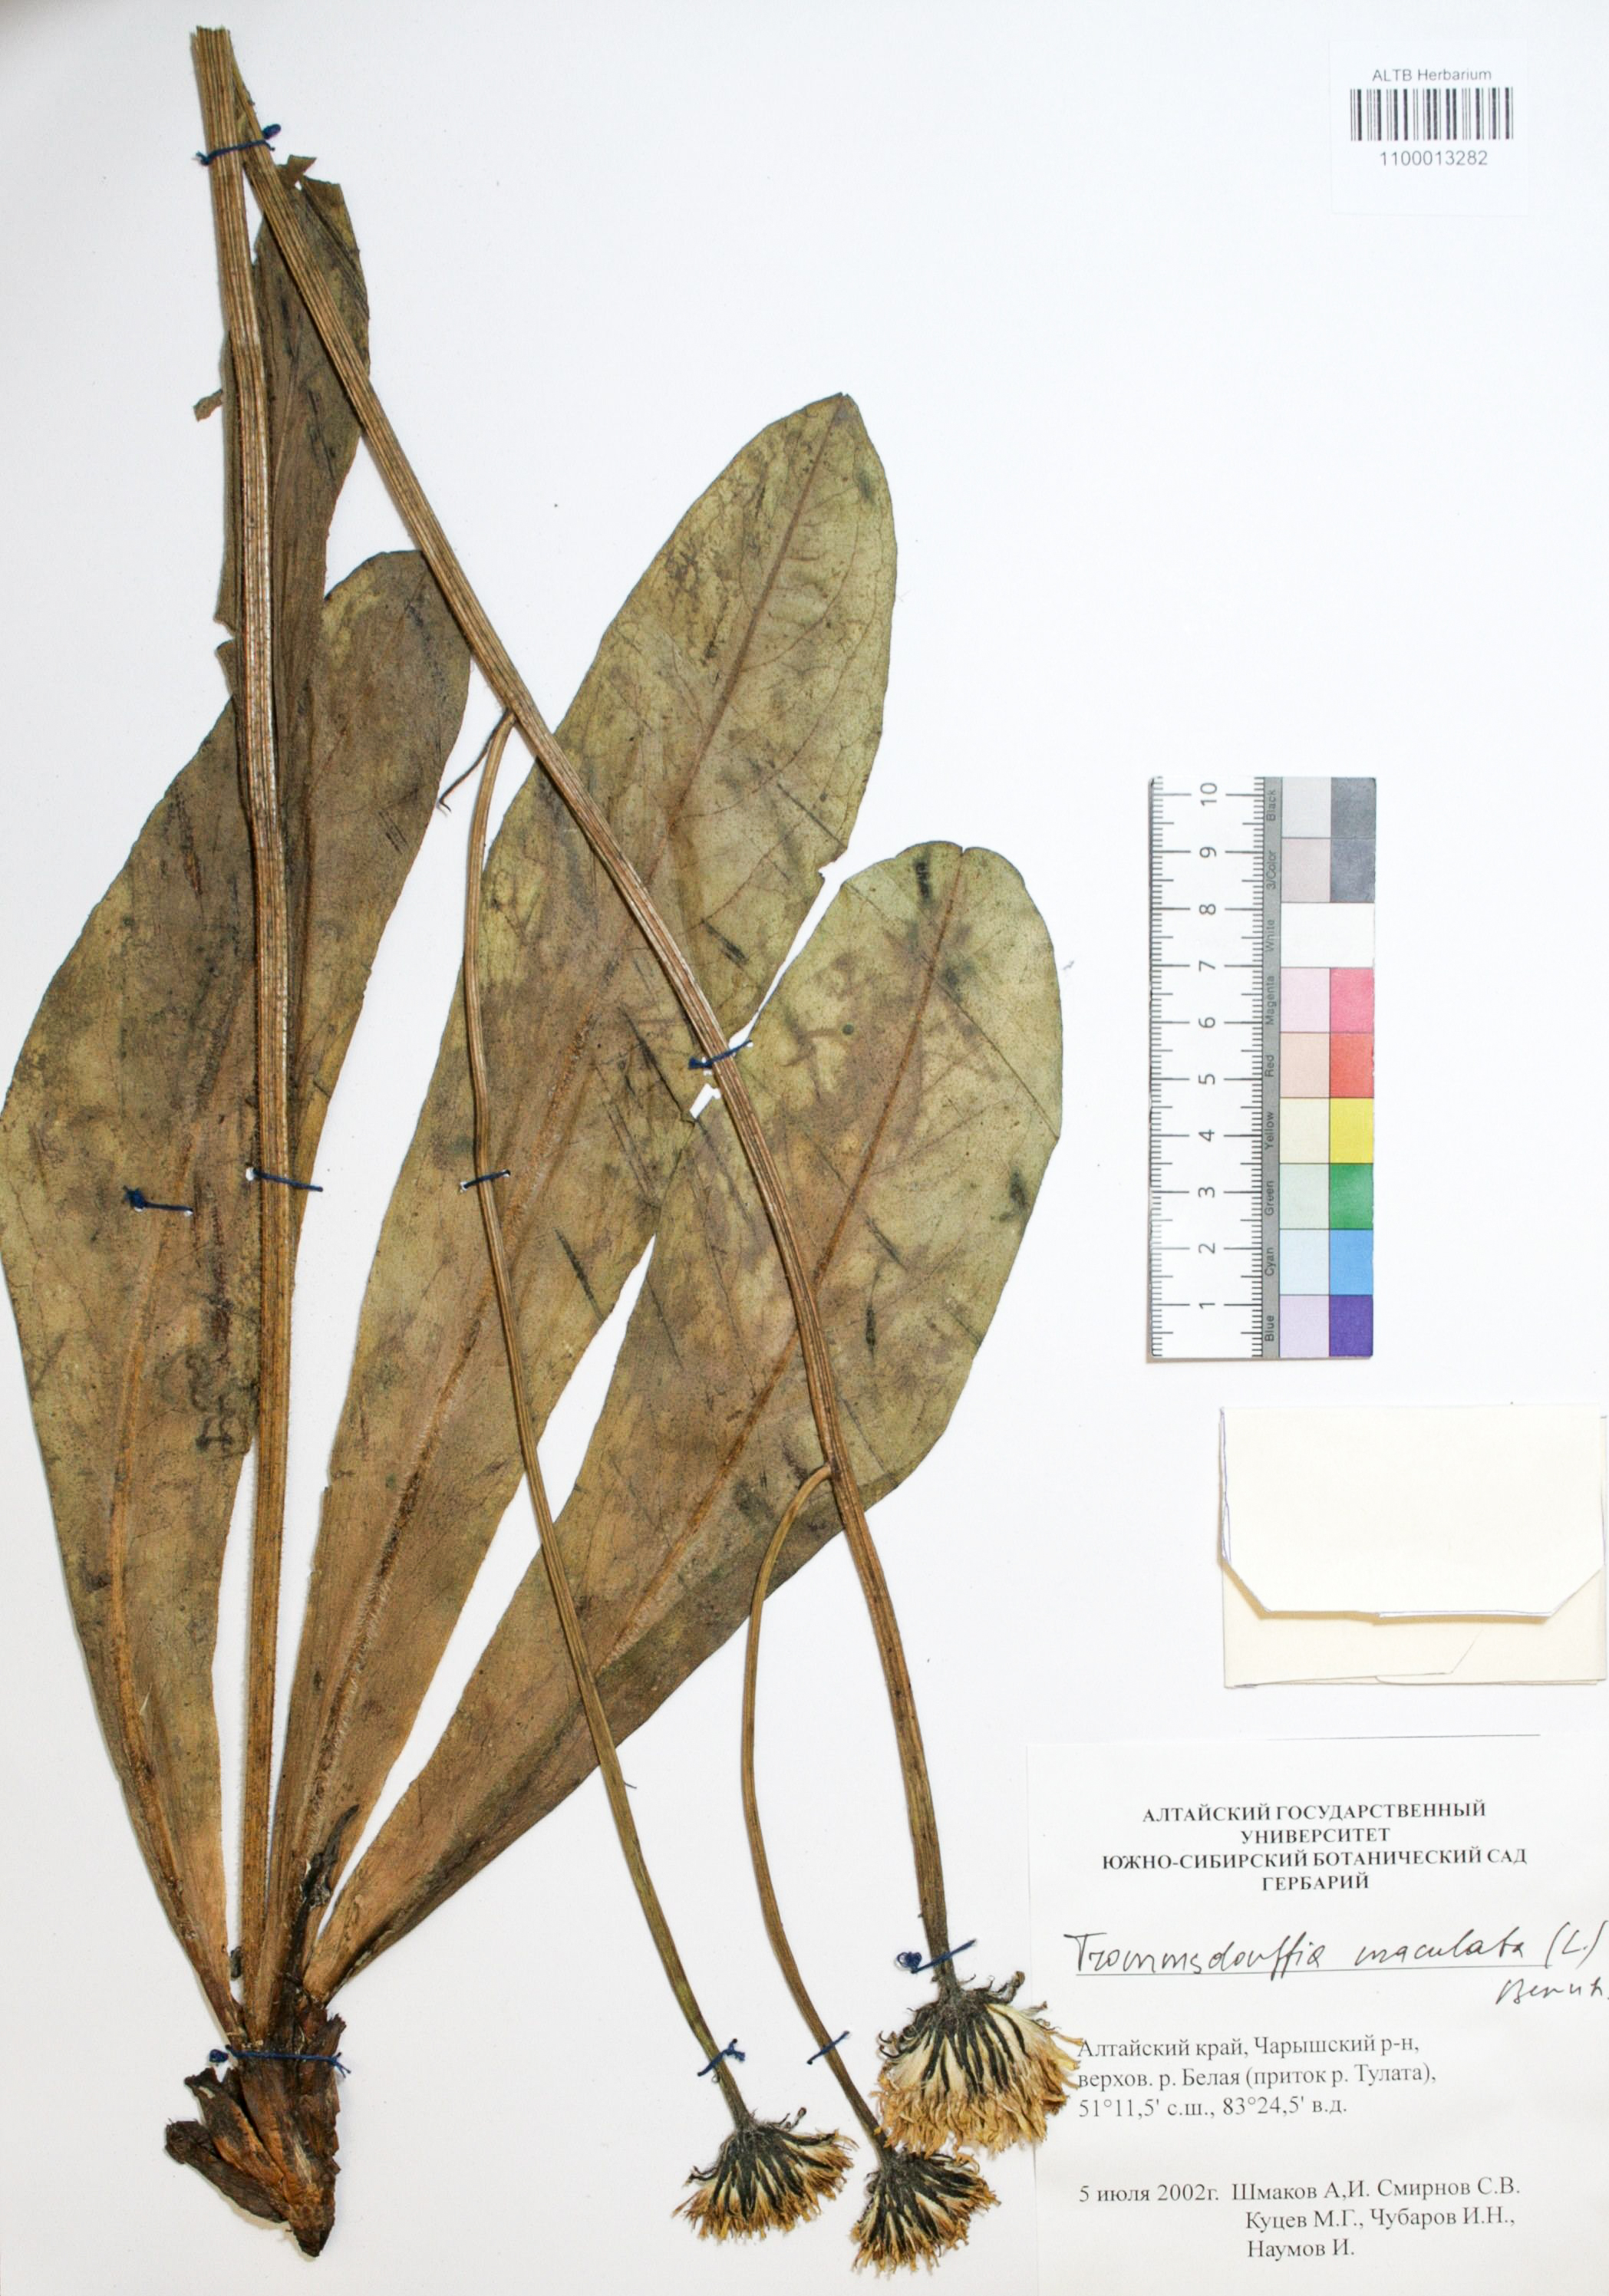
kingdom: Plantae
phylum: Tracheophyta
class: Magnoliopsida
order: Asterales
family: Asteraceae
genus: Trommsdorffia
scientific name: Trommsdorffia maculata
